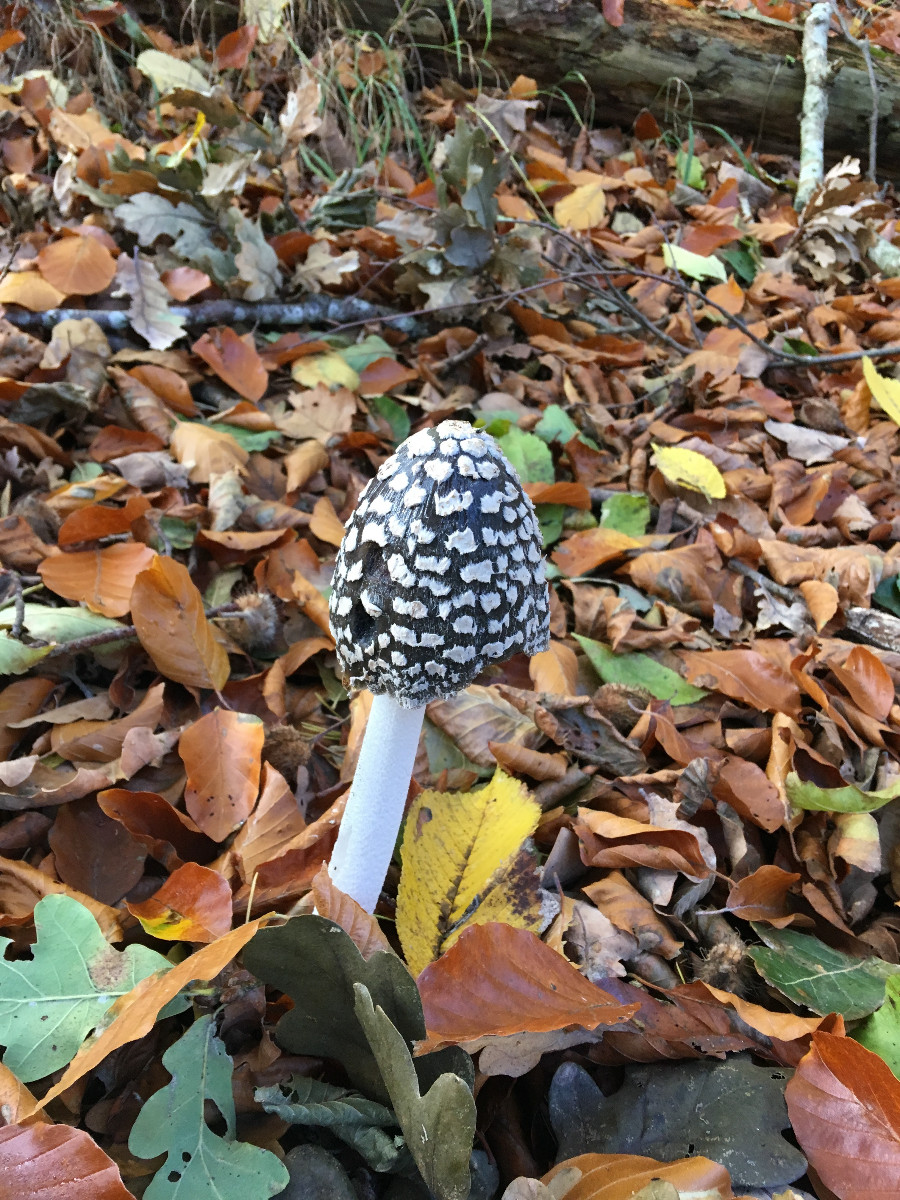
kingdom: Fungi
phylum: Basidiomycota
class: Agaricomycetes
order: Agaricales
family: Psathyrellaceae
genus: Coprinopsis
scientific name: Coprinopsis picacea
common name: skade-blækhat
